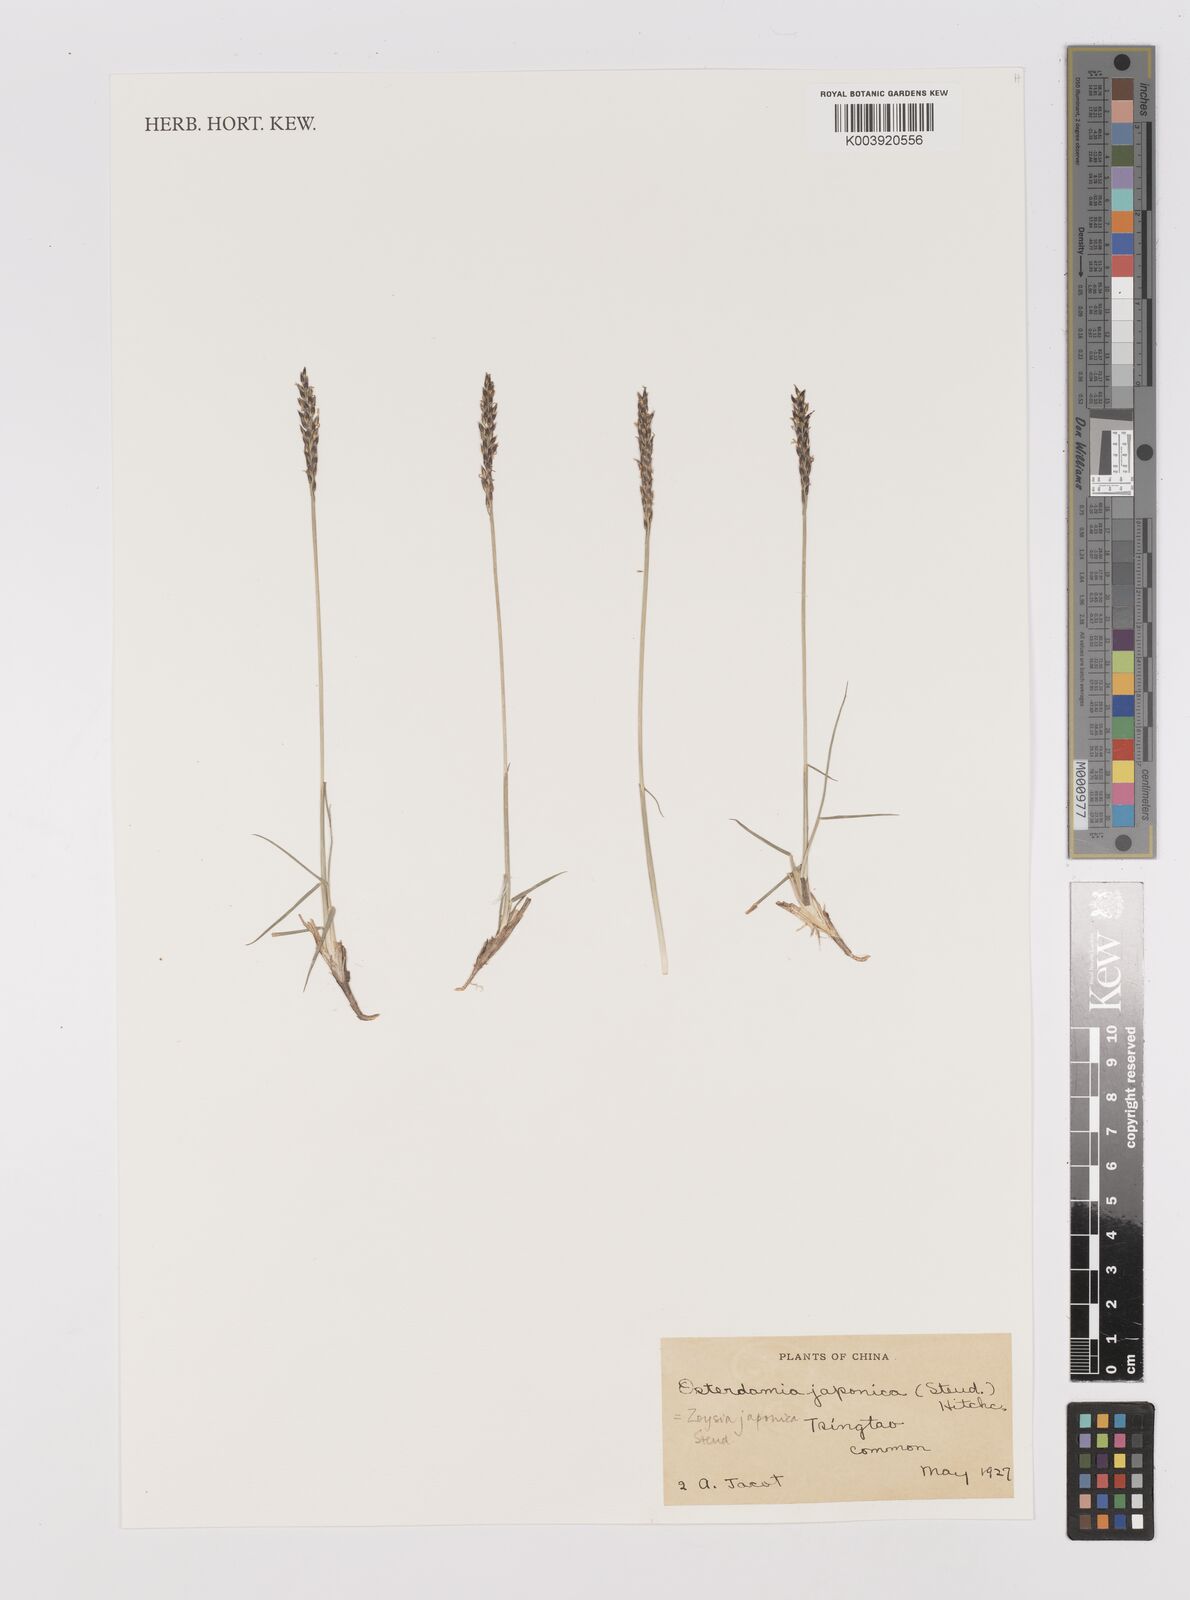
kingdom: Plantae
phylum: Tracheophyta
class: Liliopsida
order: Poales
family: Poaceae
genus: Zoysia
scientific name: Zoysia japonica
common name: Korean lawngrass
